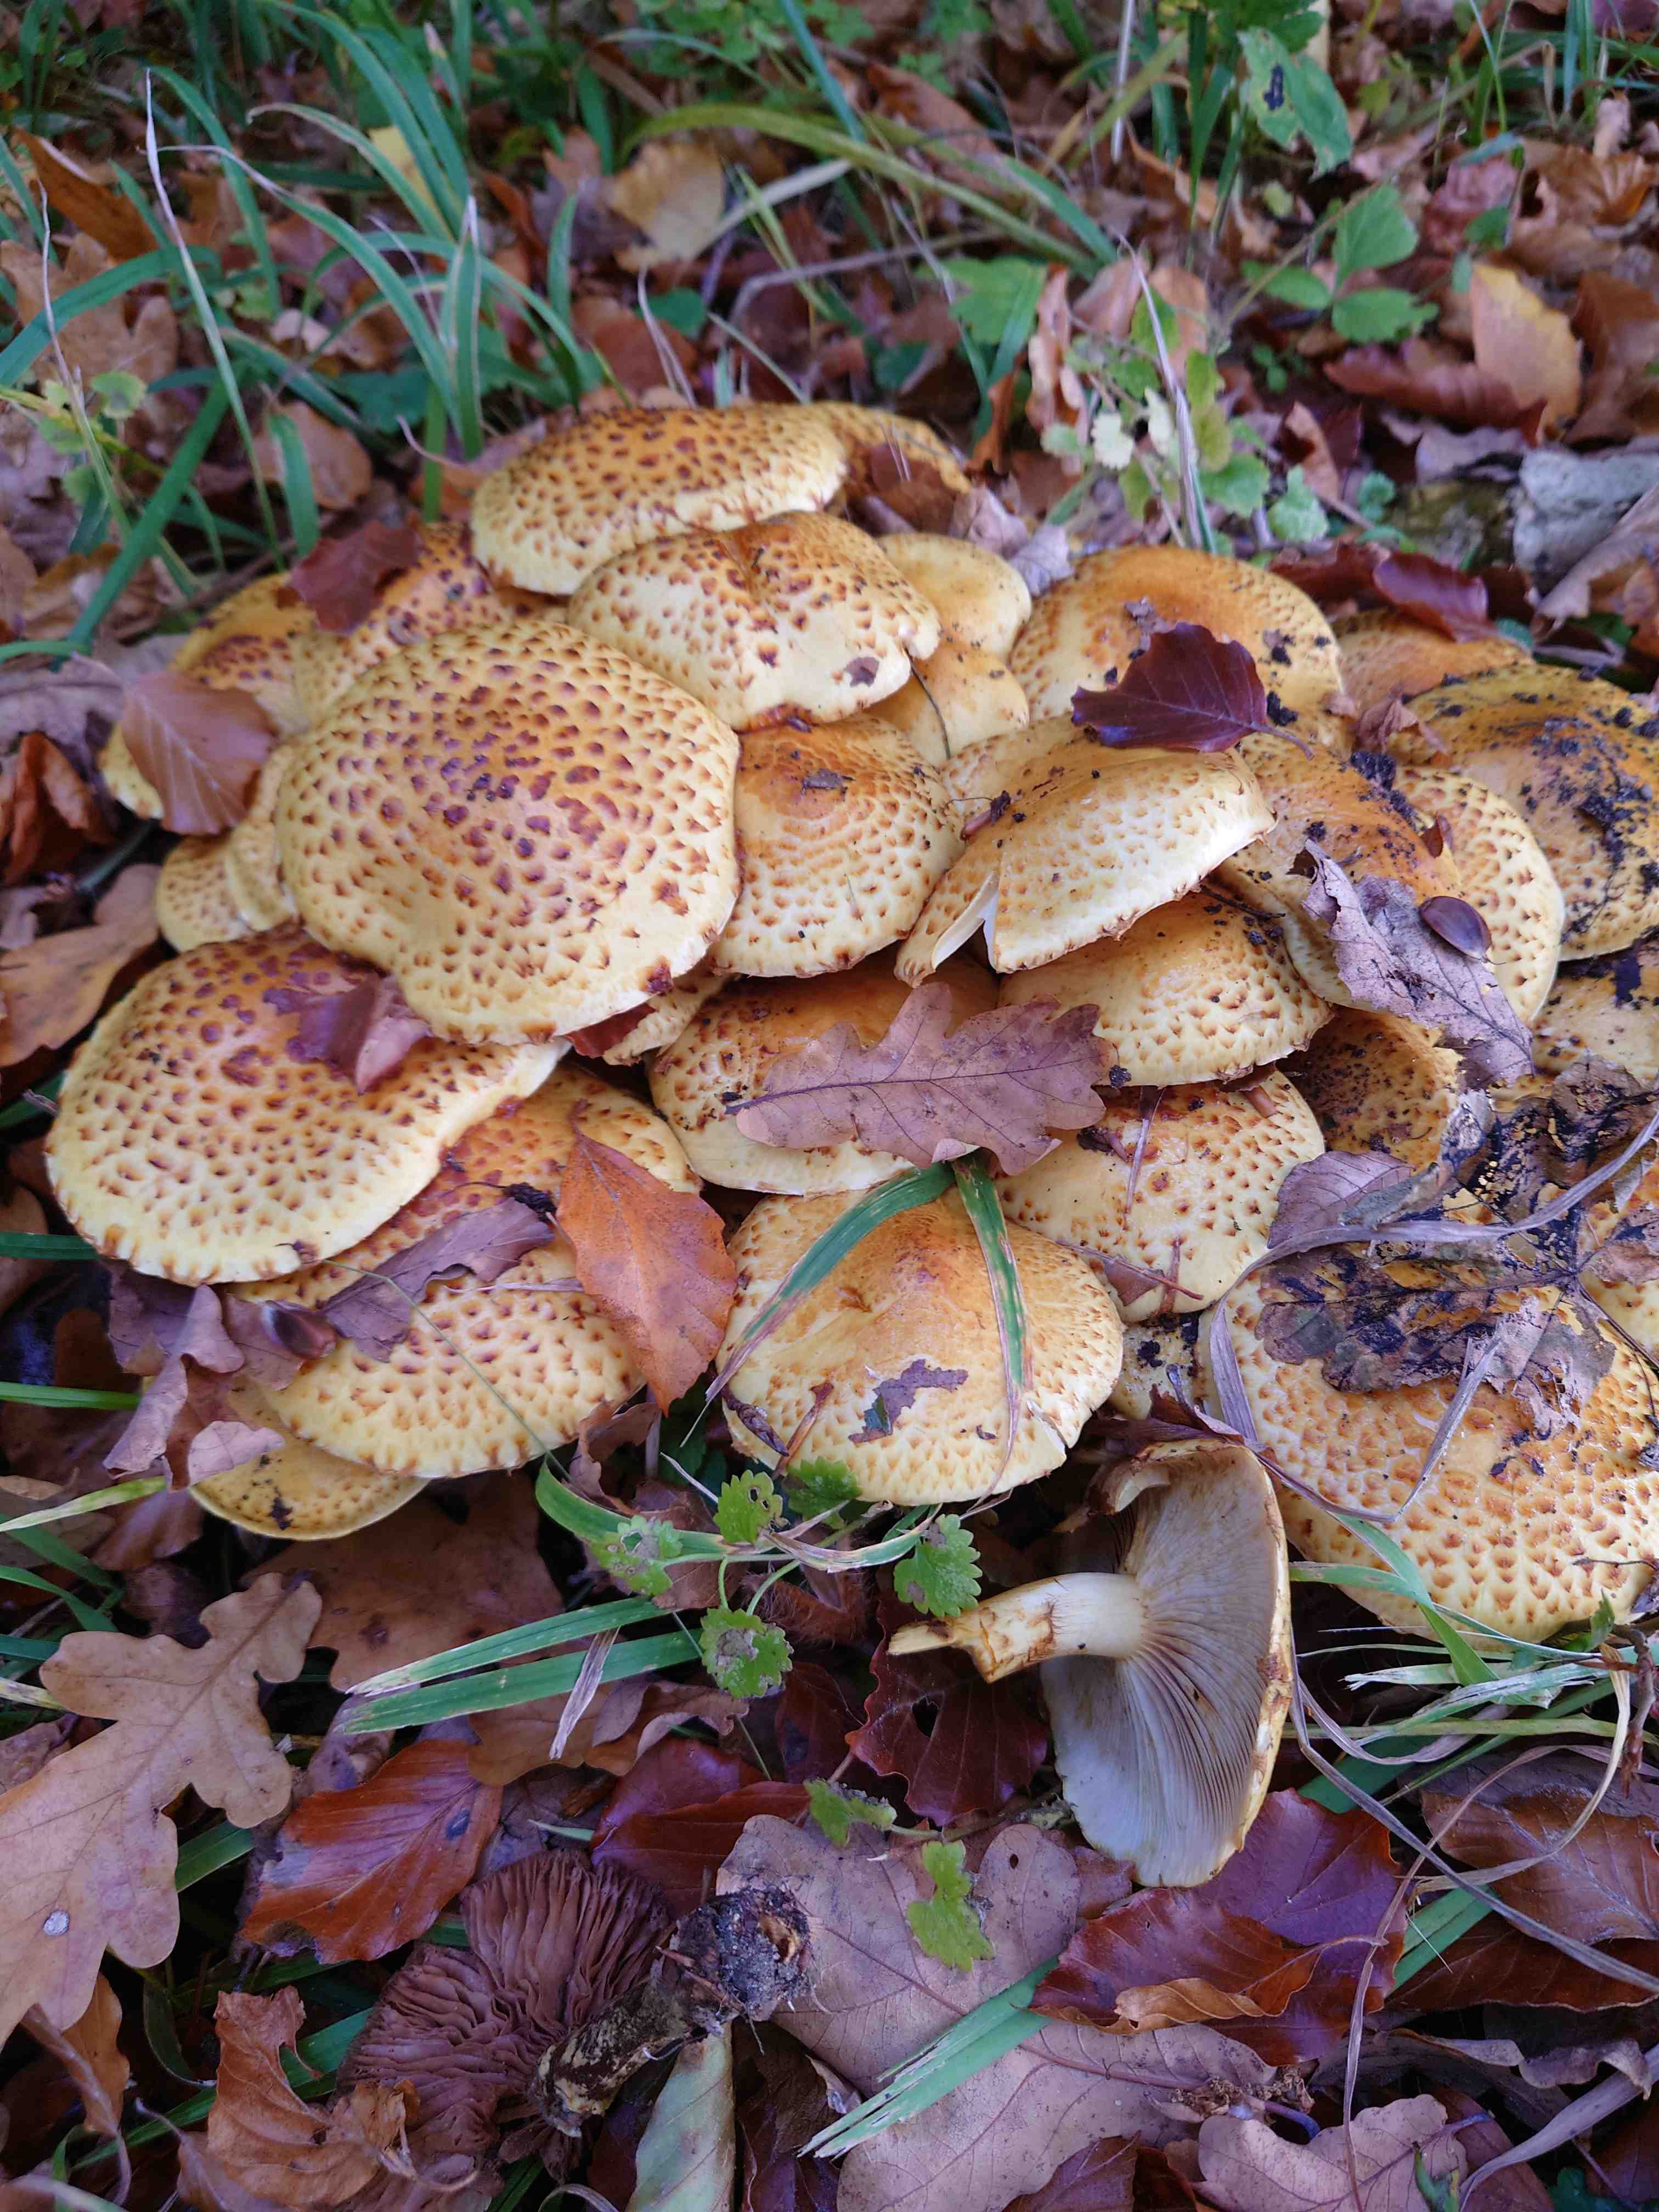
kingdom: Fungi
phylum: Basidiomycota
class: Agaricomycetes
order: Agaricales
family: Strophariaceae
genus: Pholiota
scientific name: Pholiota jahnii
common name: slimet skælhat
